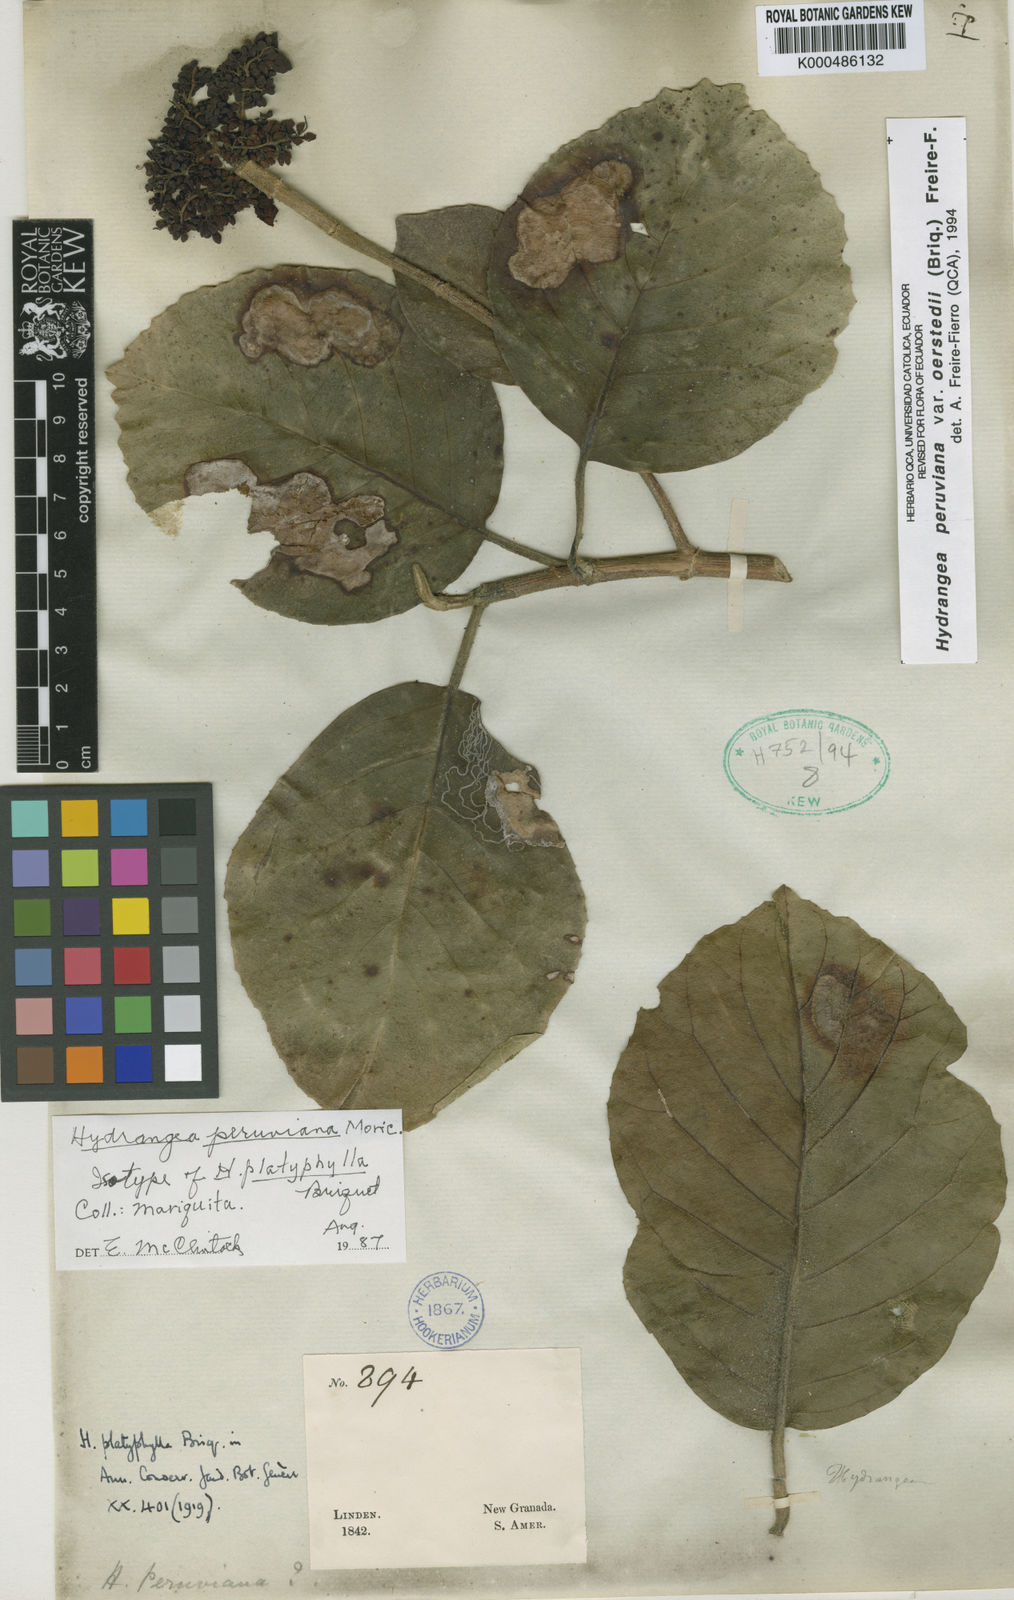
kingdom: Plantae
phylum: Tracheophyta
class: Magnoliopsida
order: Cornales
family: Hydrangeaceae
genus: Hydrangea
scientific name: Hydrangea
